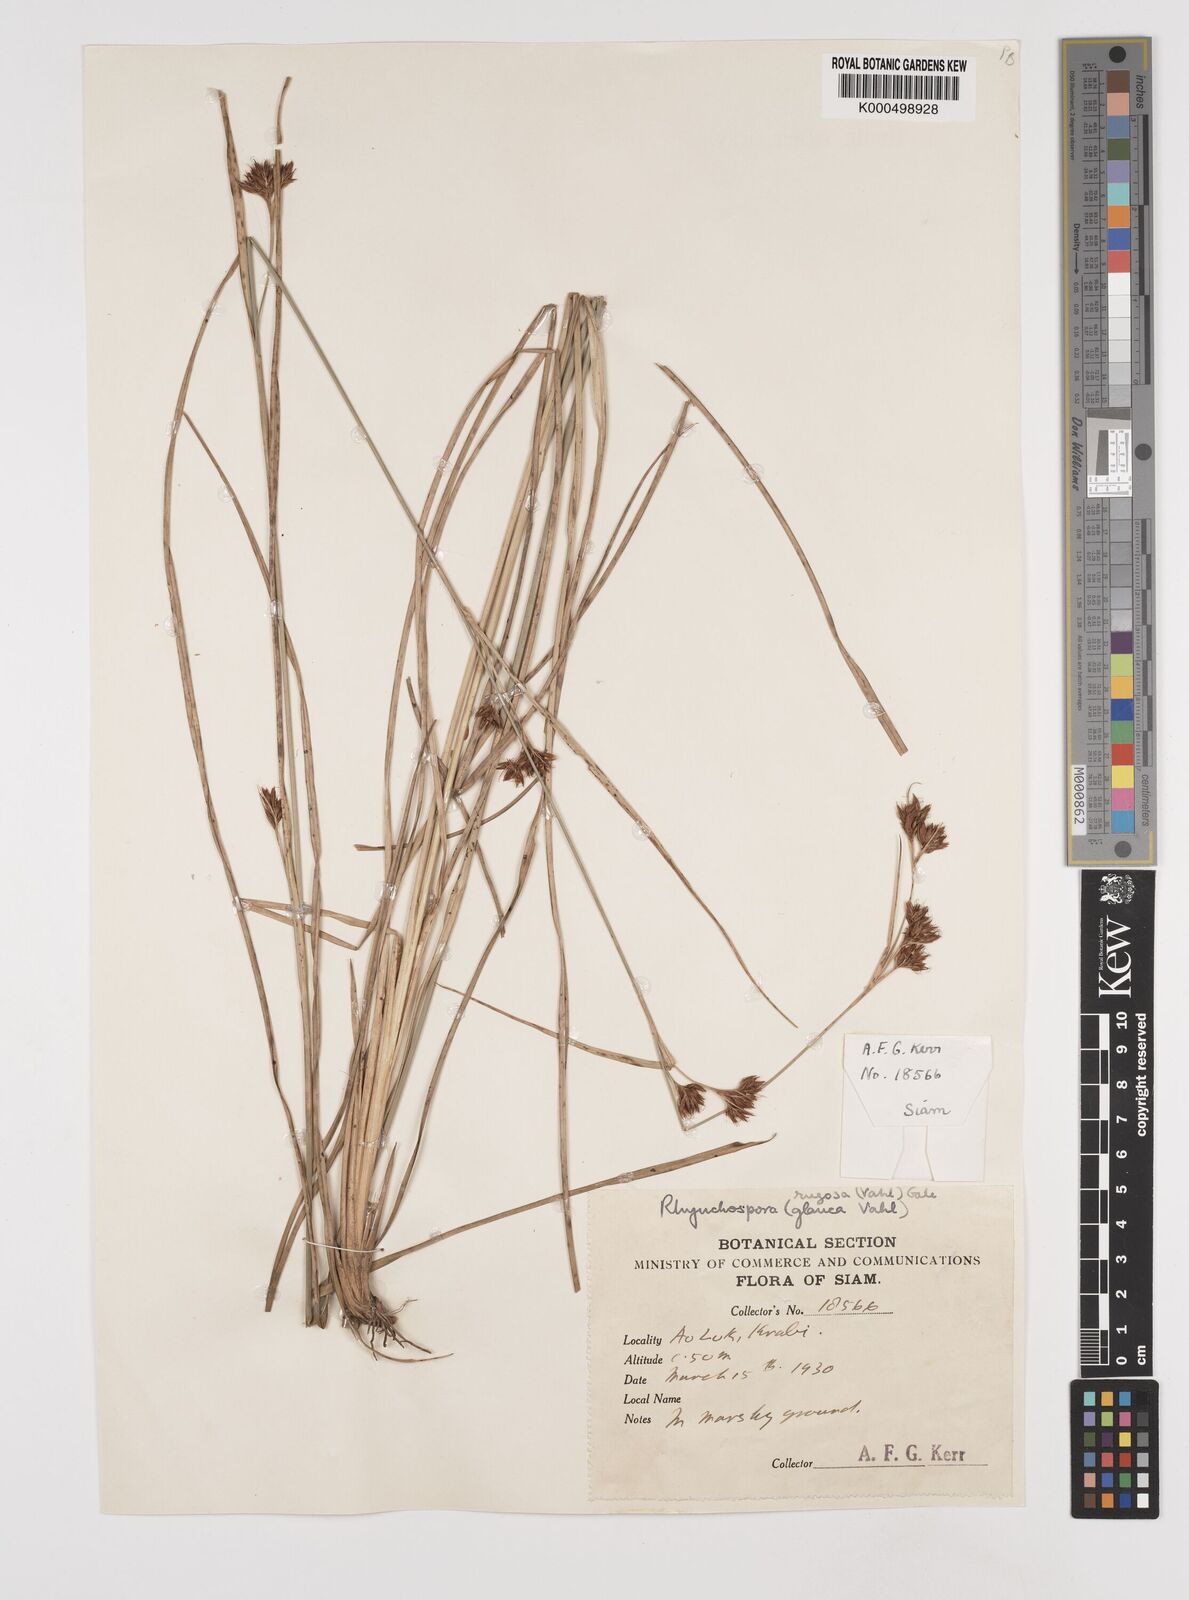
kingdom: Plantae
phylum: Tracheophyta
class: Liliopsida
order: Poales
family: Cyperaceae
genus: Rhynchospora
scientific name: Rhynchospora chinensis
